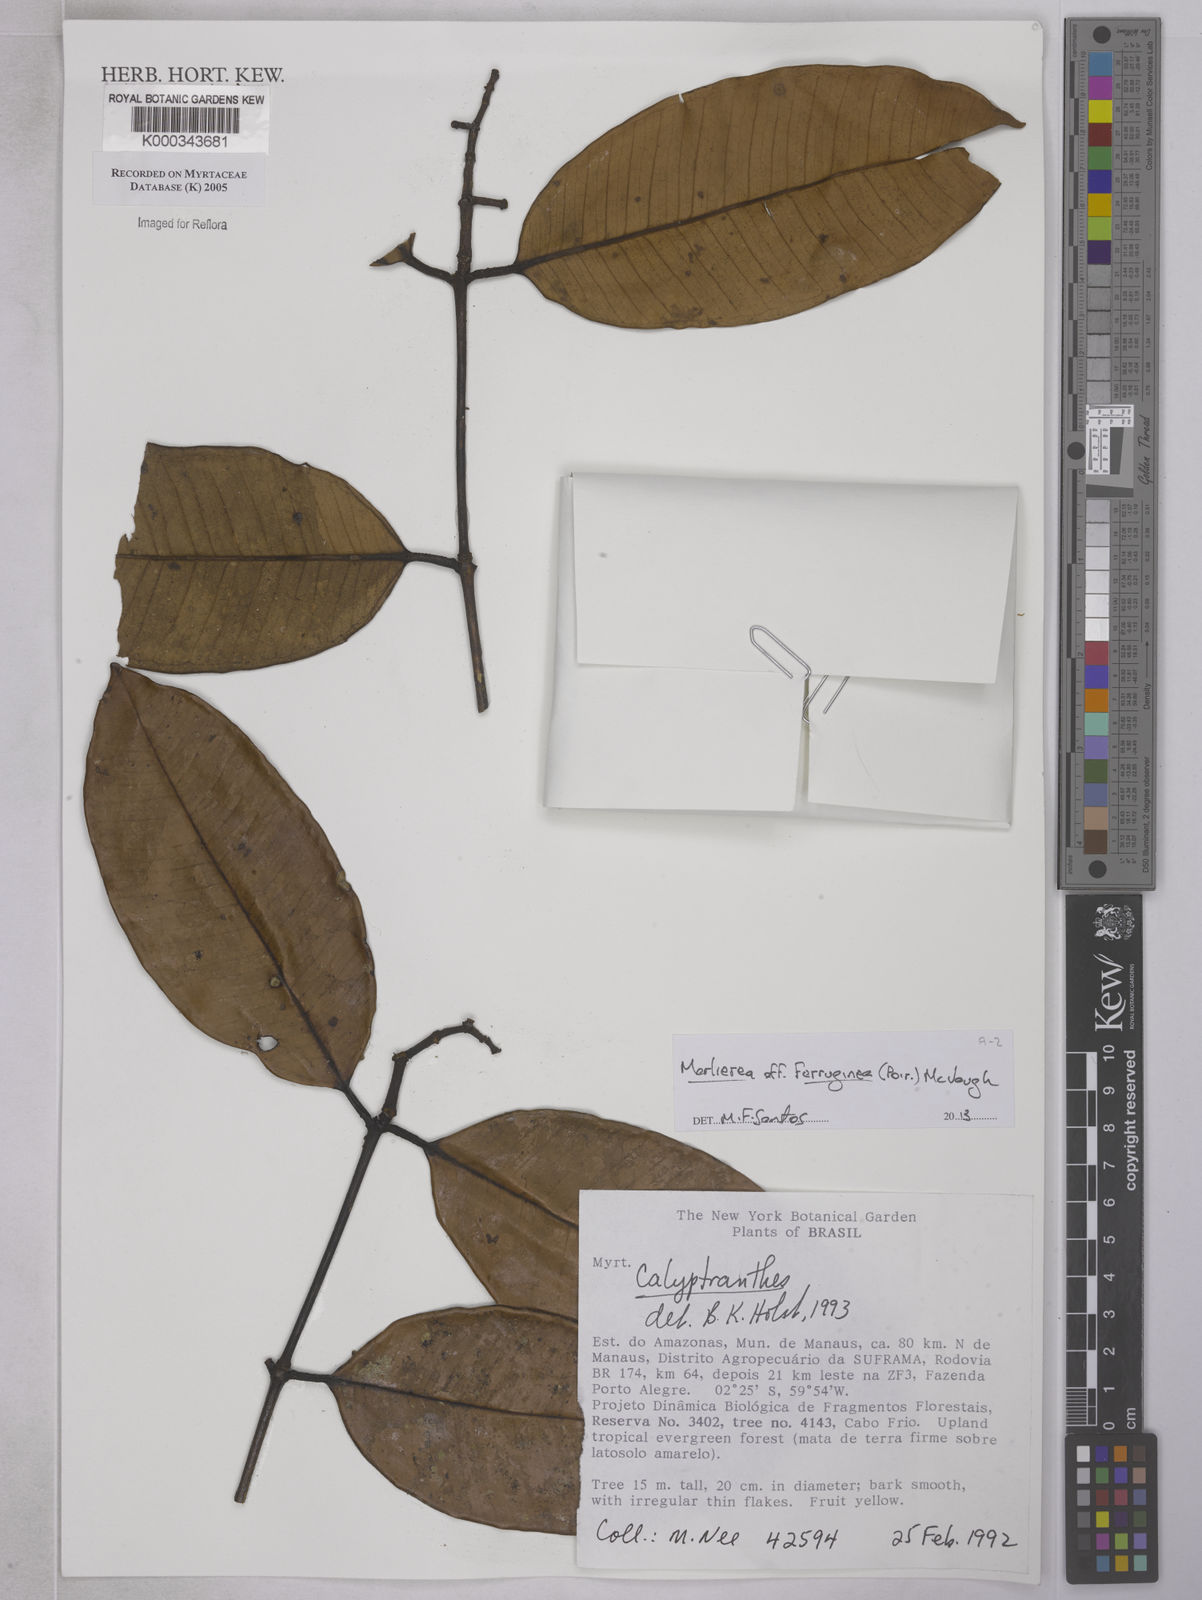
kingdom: Plantae
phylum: Tracheophyta
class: Magnoliopsida
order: Myrtales
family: Myrtaceae
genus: Calyptranthes
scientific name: Calyptranthes
